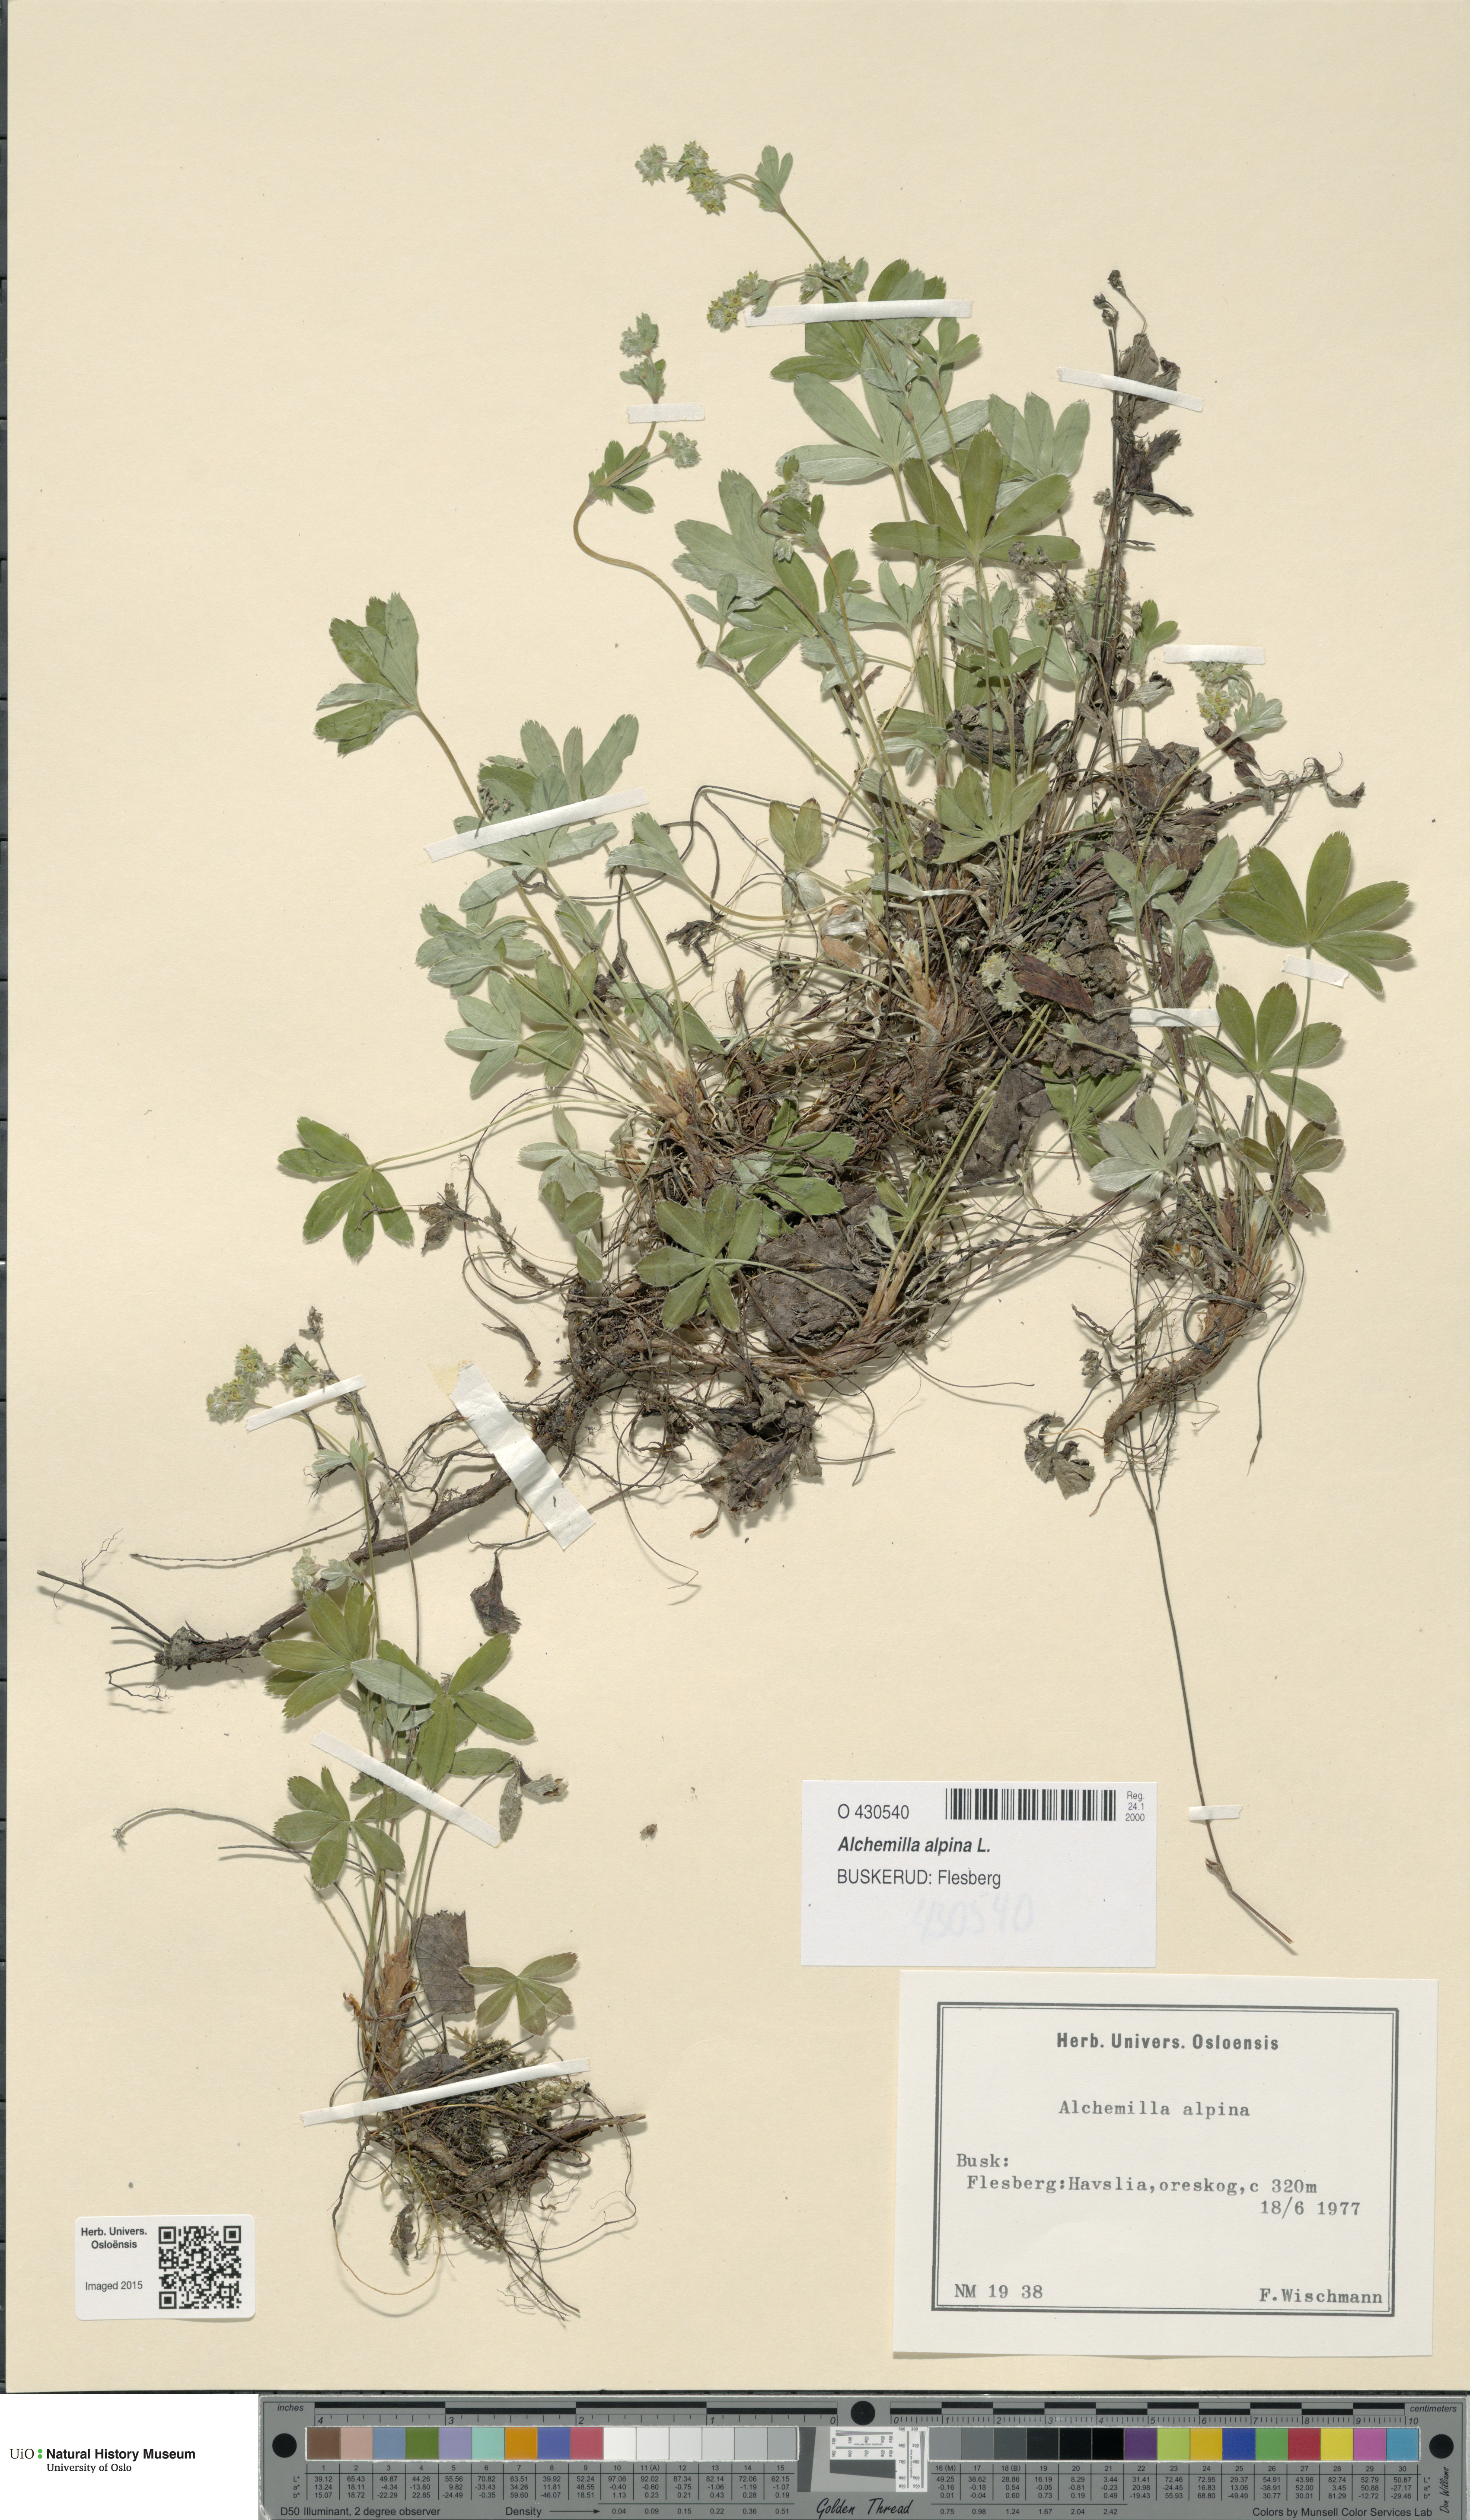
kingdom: Plantae
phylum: Tracheophyta
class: Magnoliopsida
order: Rosales
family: Rosaceae
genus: Alchemilla
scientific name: Alchemilla alpina
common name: Alpine lady's-mantle
